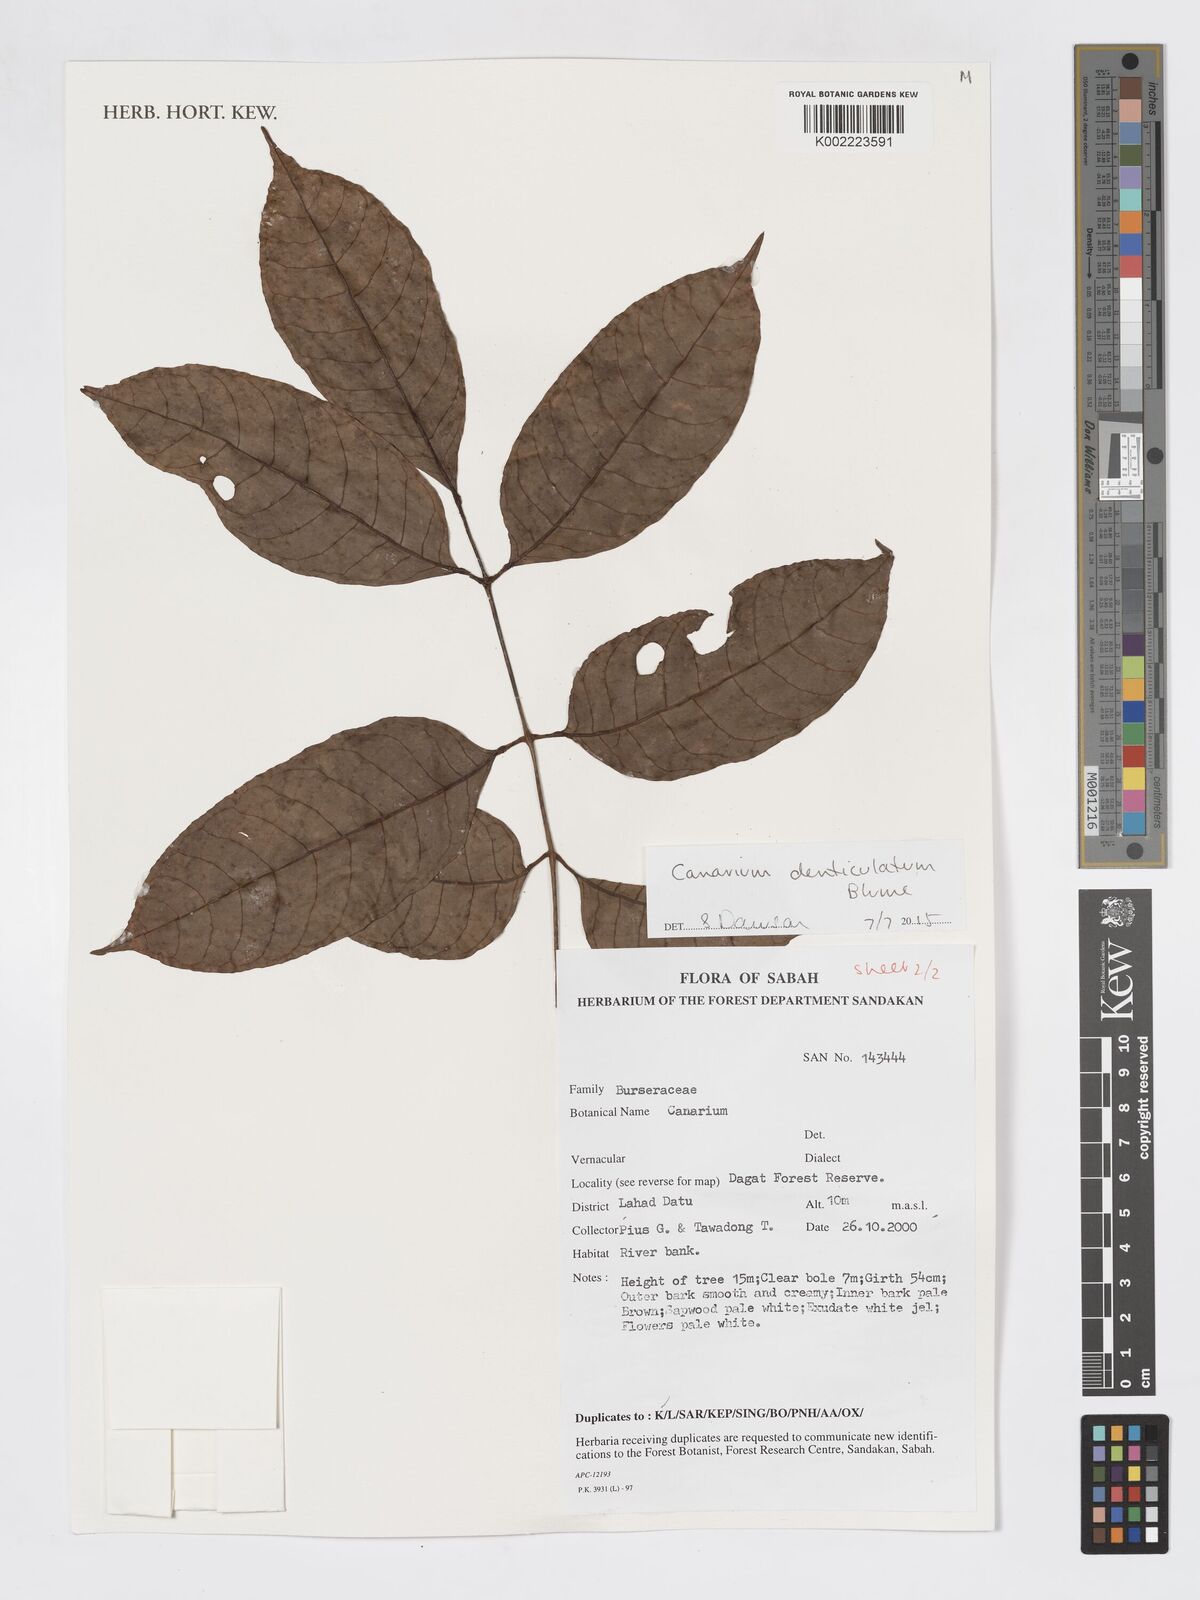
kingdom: Plantae
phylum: Tracheophyta
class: Magnoliopsida
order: Sapindales
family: Burseraceae
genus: Canarium
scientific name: Canarium denticulatum
